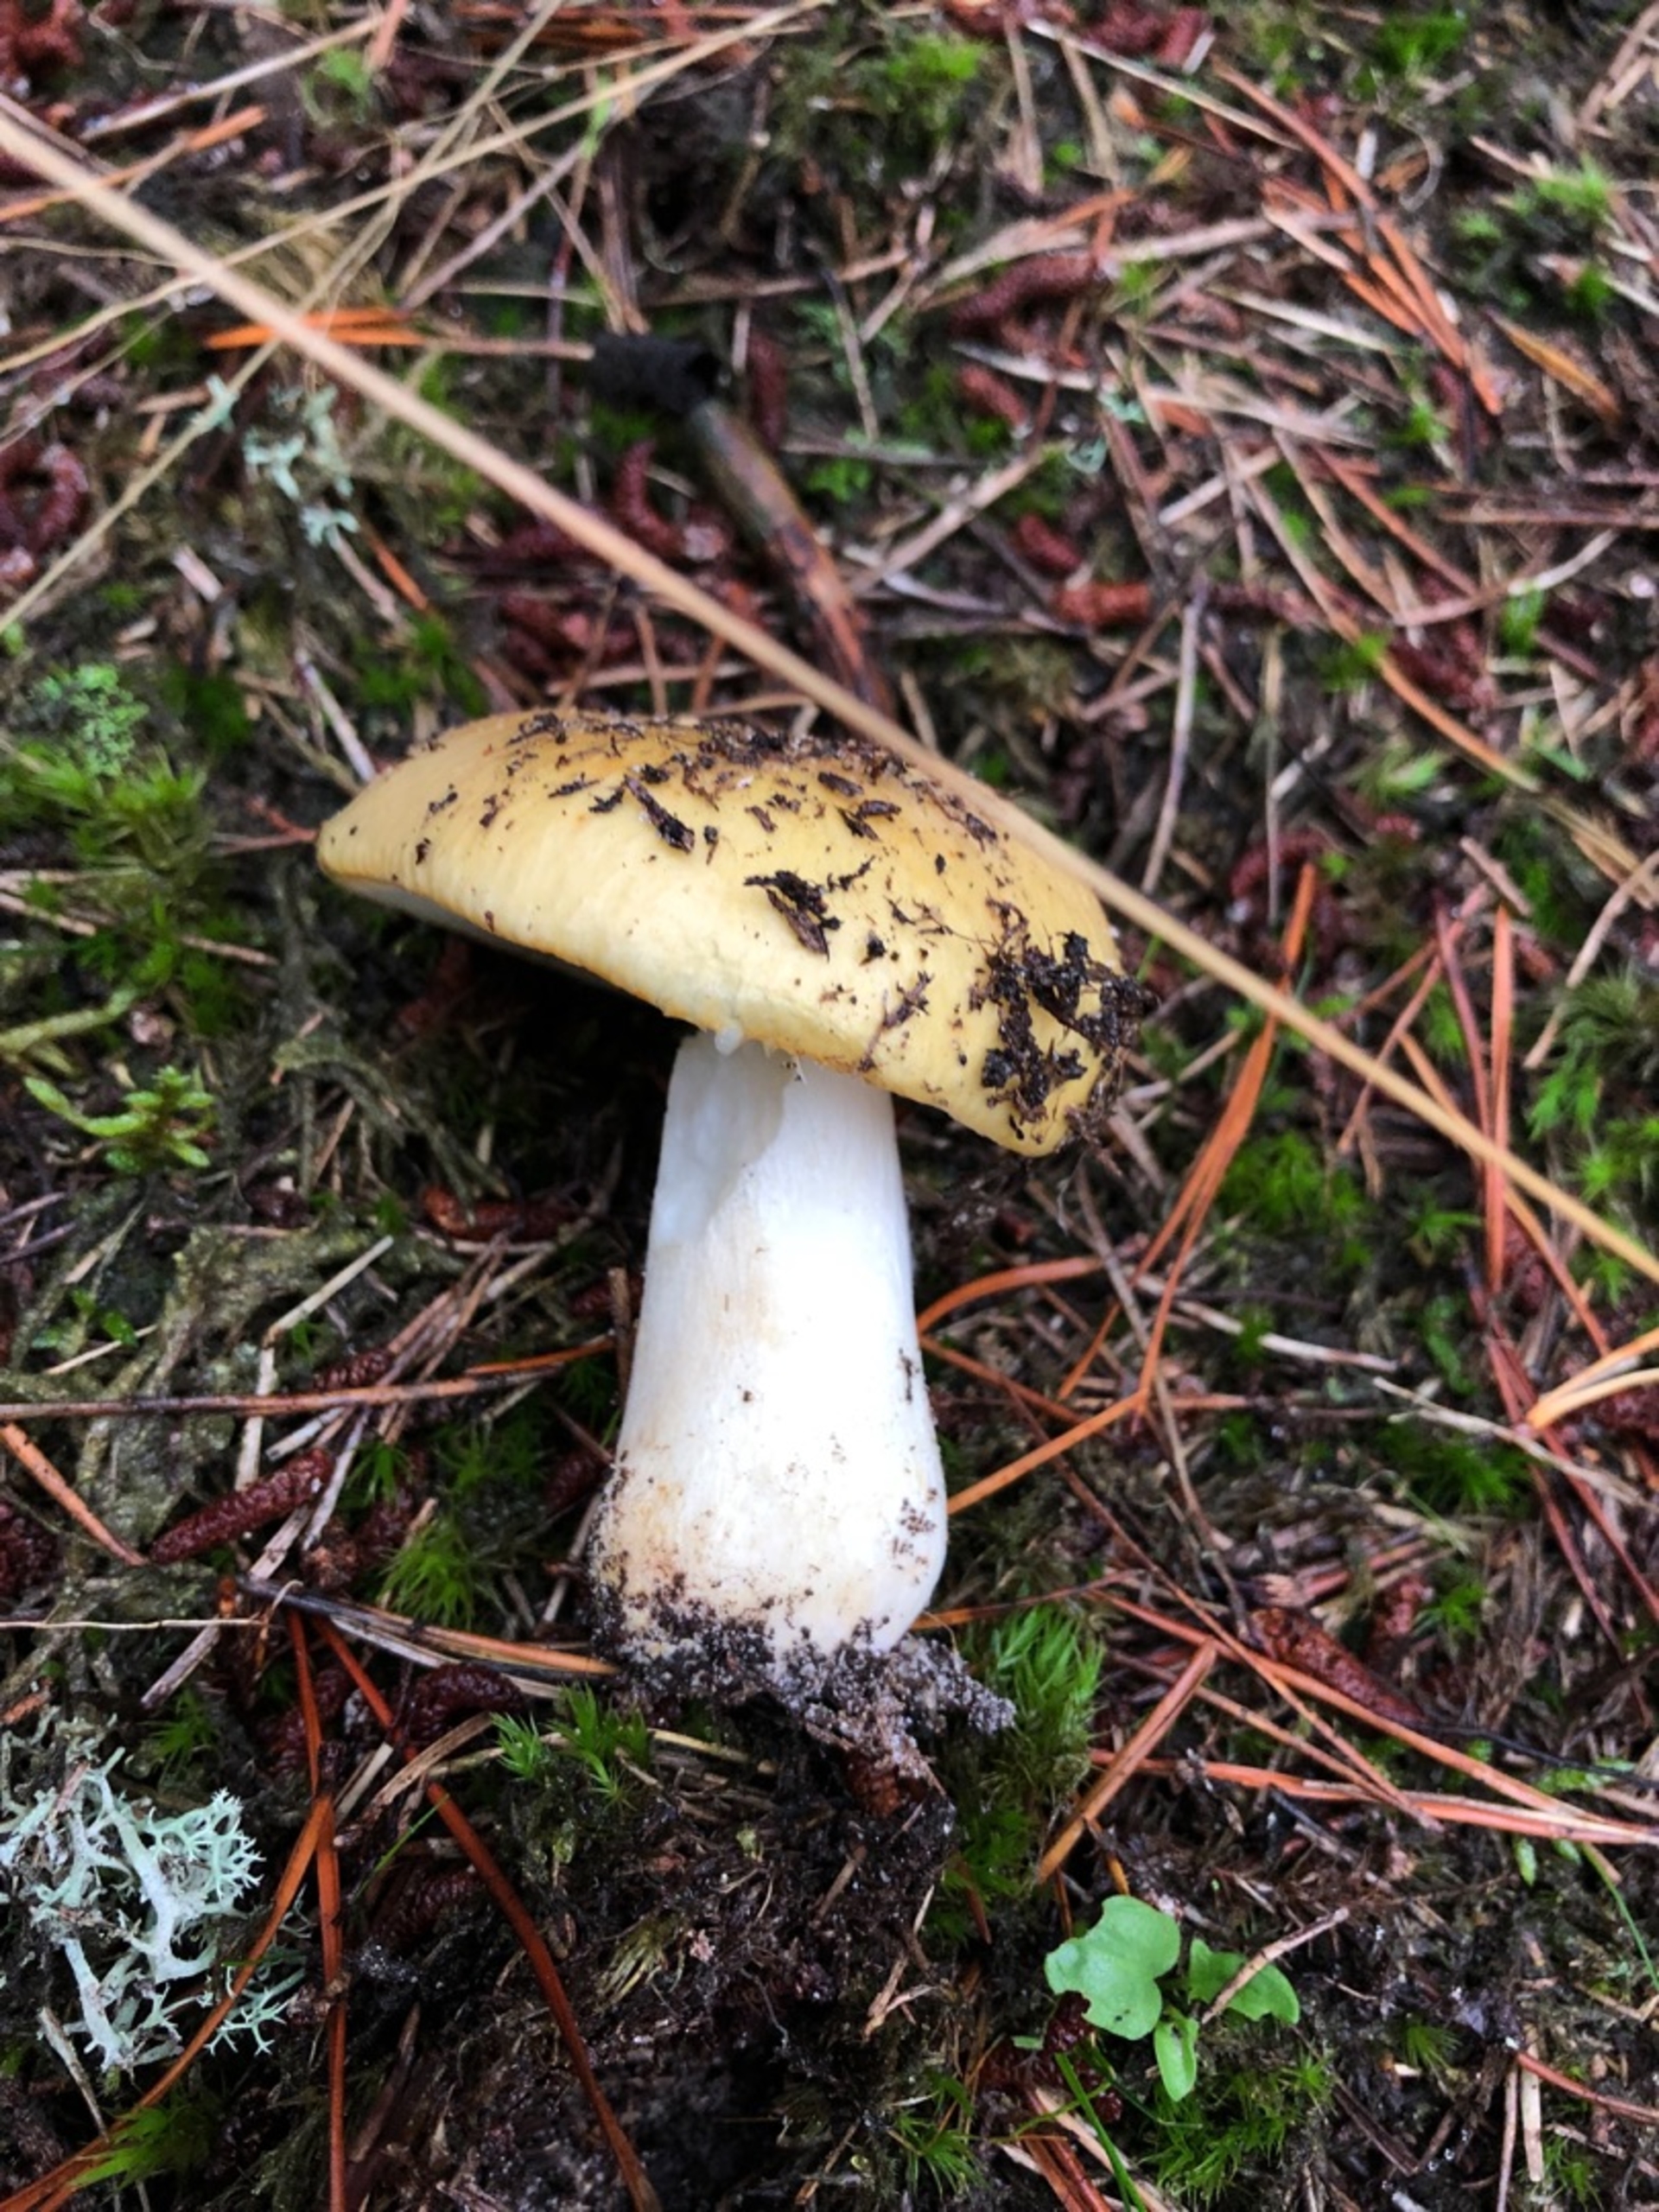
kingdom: Fungi
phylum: Basidiomycota
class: Agaricomycetes
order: Russulales
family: Russulaceae
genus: Russula
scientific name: Russula ochroleuca
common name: Okkergul skørhat
